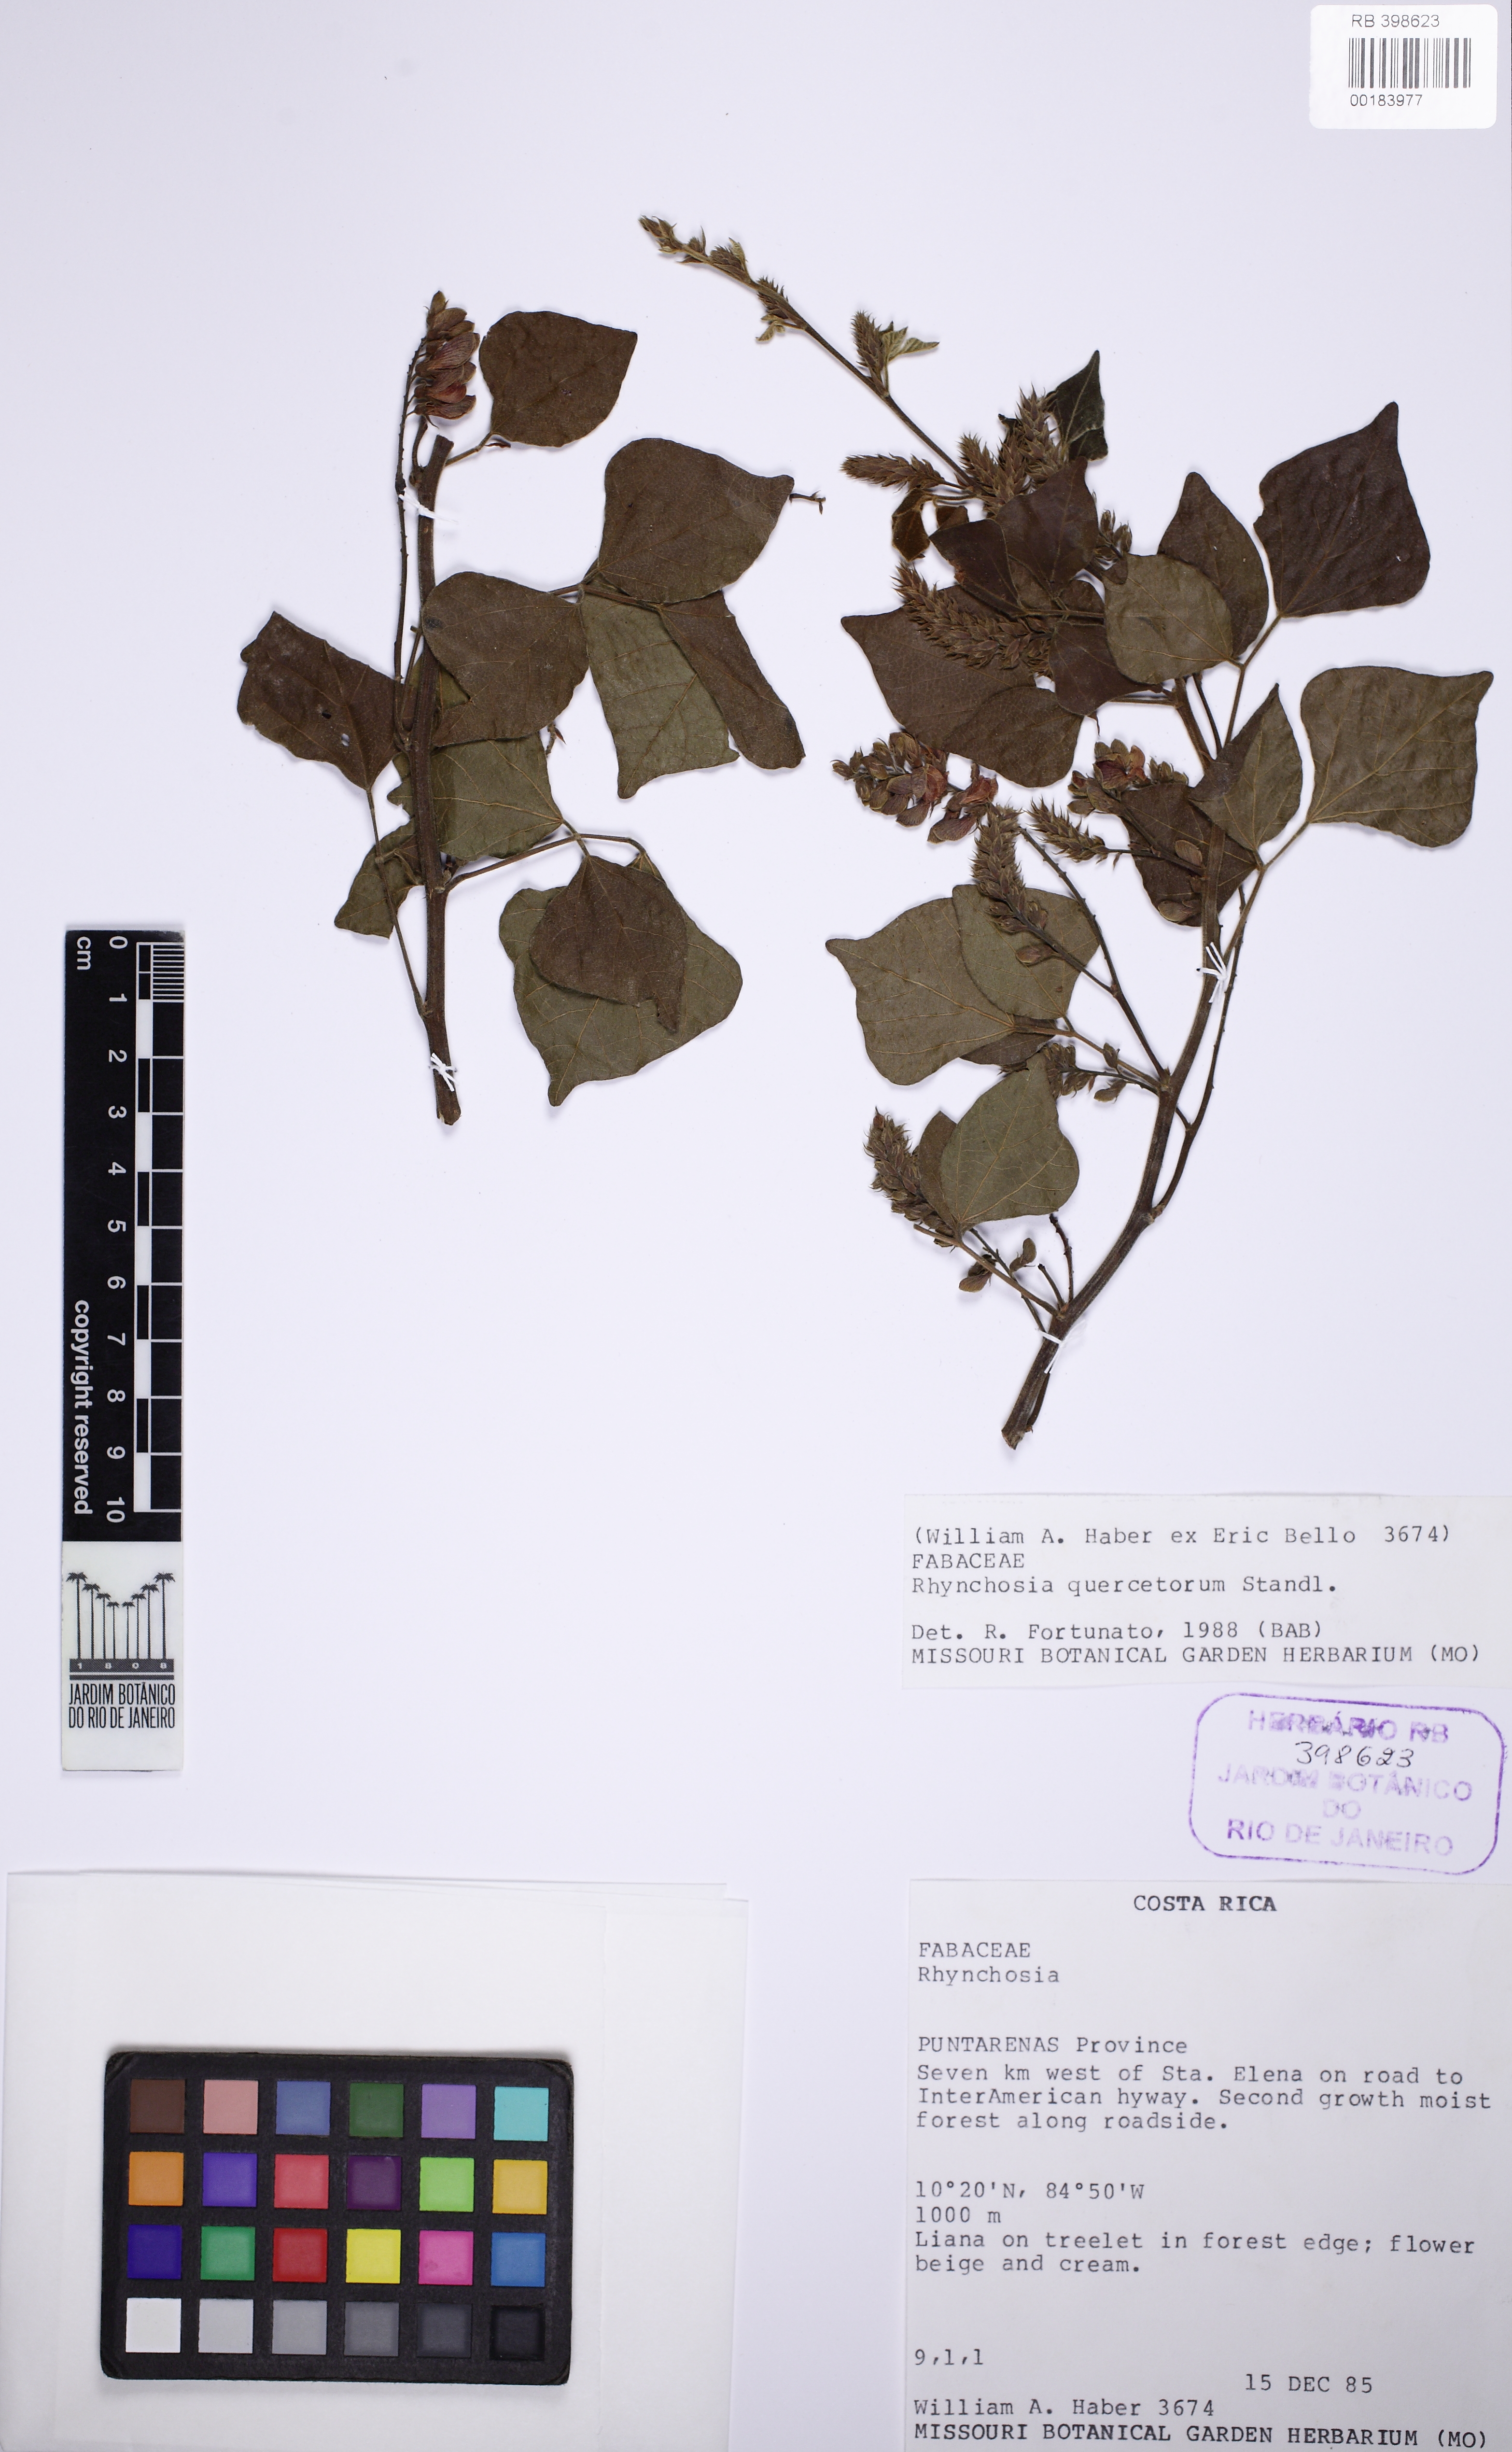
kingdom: Plantae
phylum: Tracheophyta
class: Magnoliopsida
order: Fabales
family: Fabaceae
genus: Rhynchosia
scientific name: Rhynchosia quercetorum
